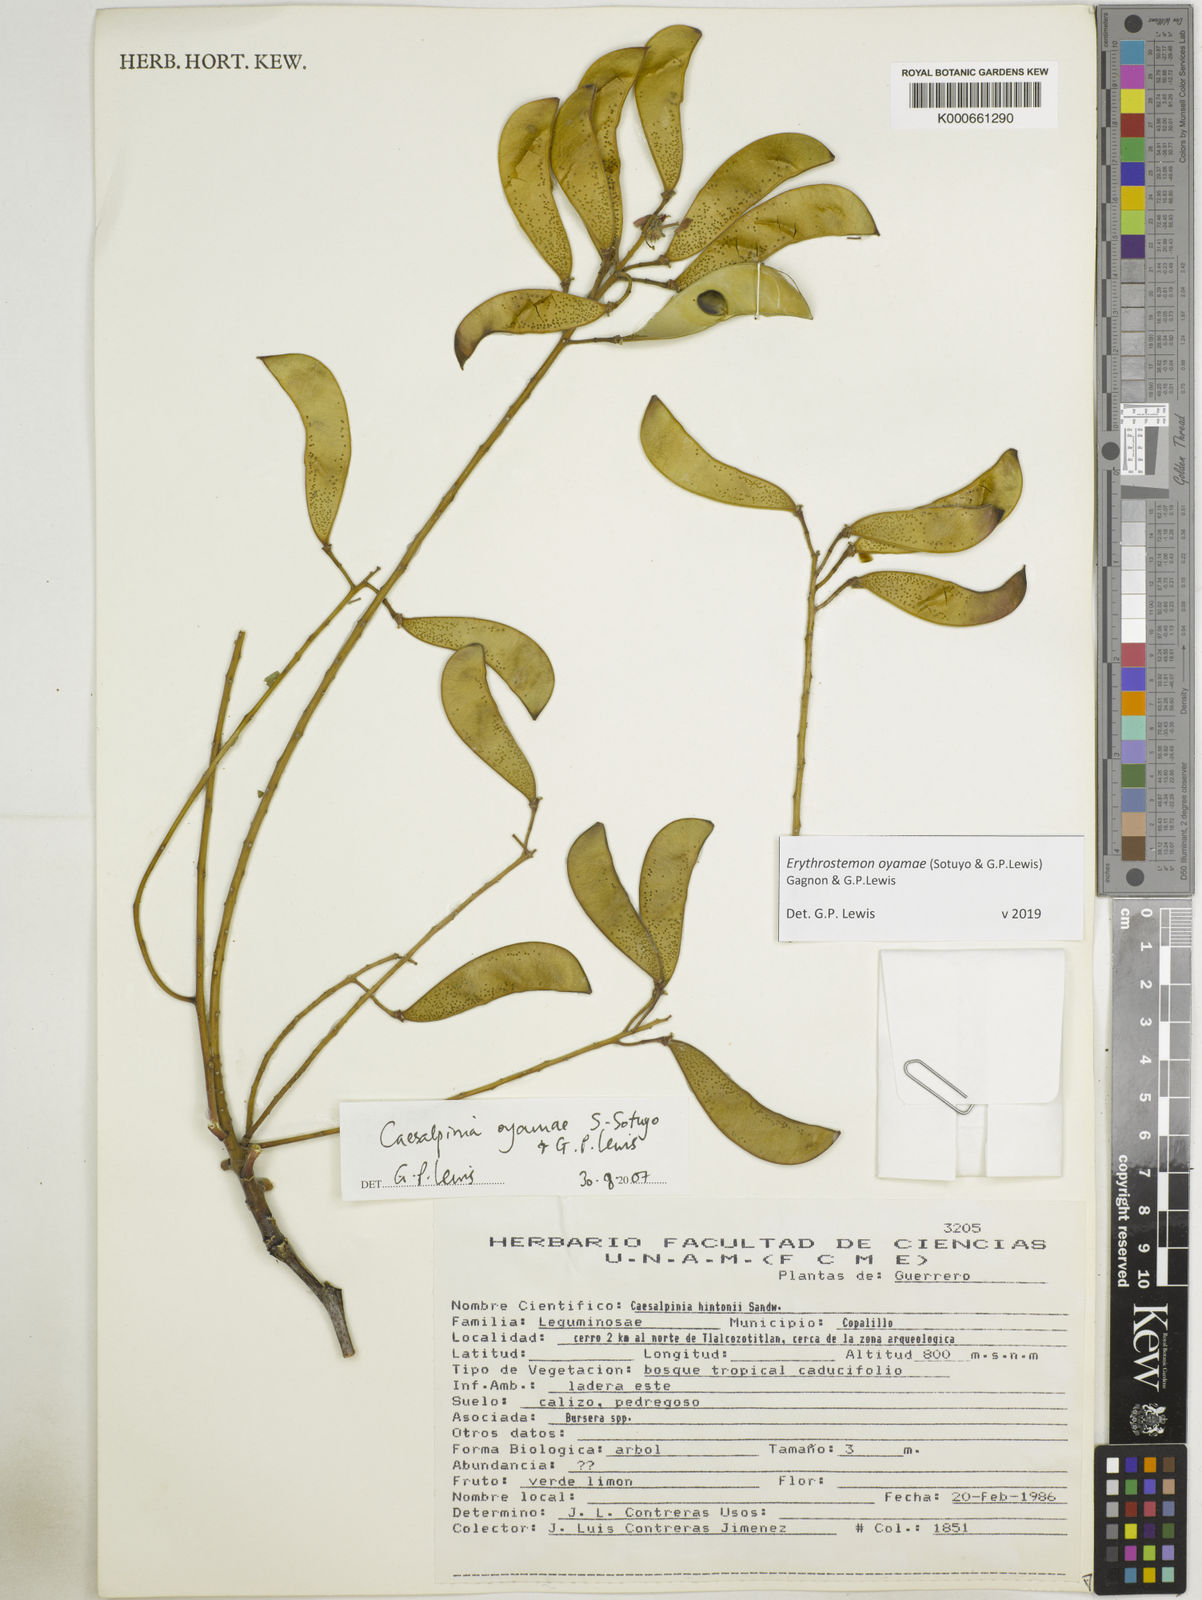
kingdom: Plantae
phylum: Tracheophyta
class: Magnoliopsida
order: Fabales
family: Fabaceae
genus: Erythrostemon
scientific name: Erythrostemon oyamae
